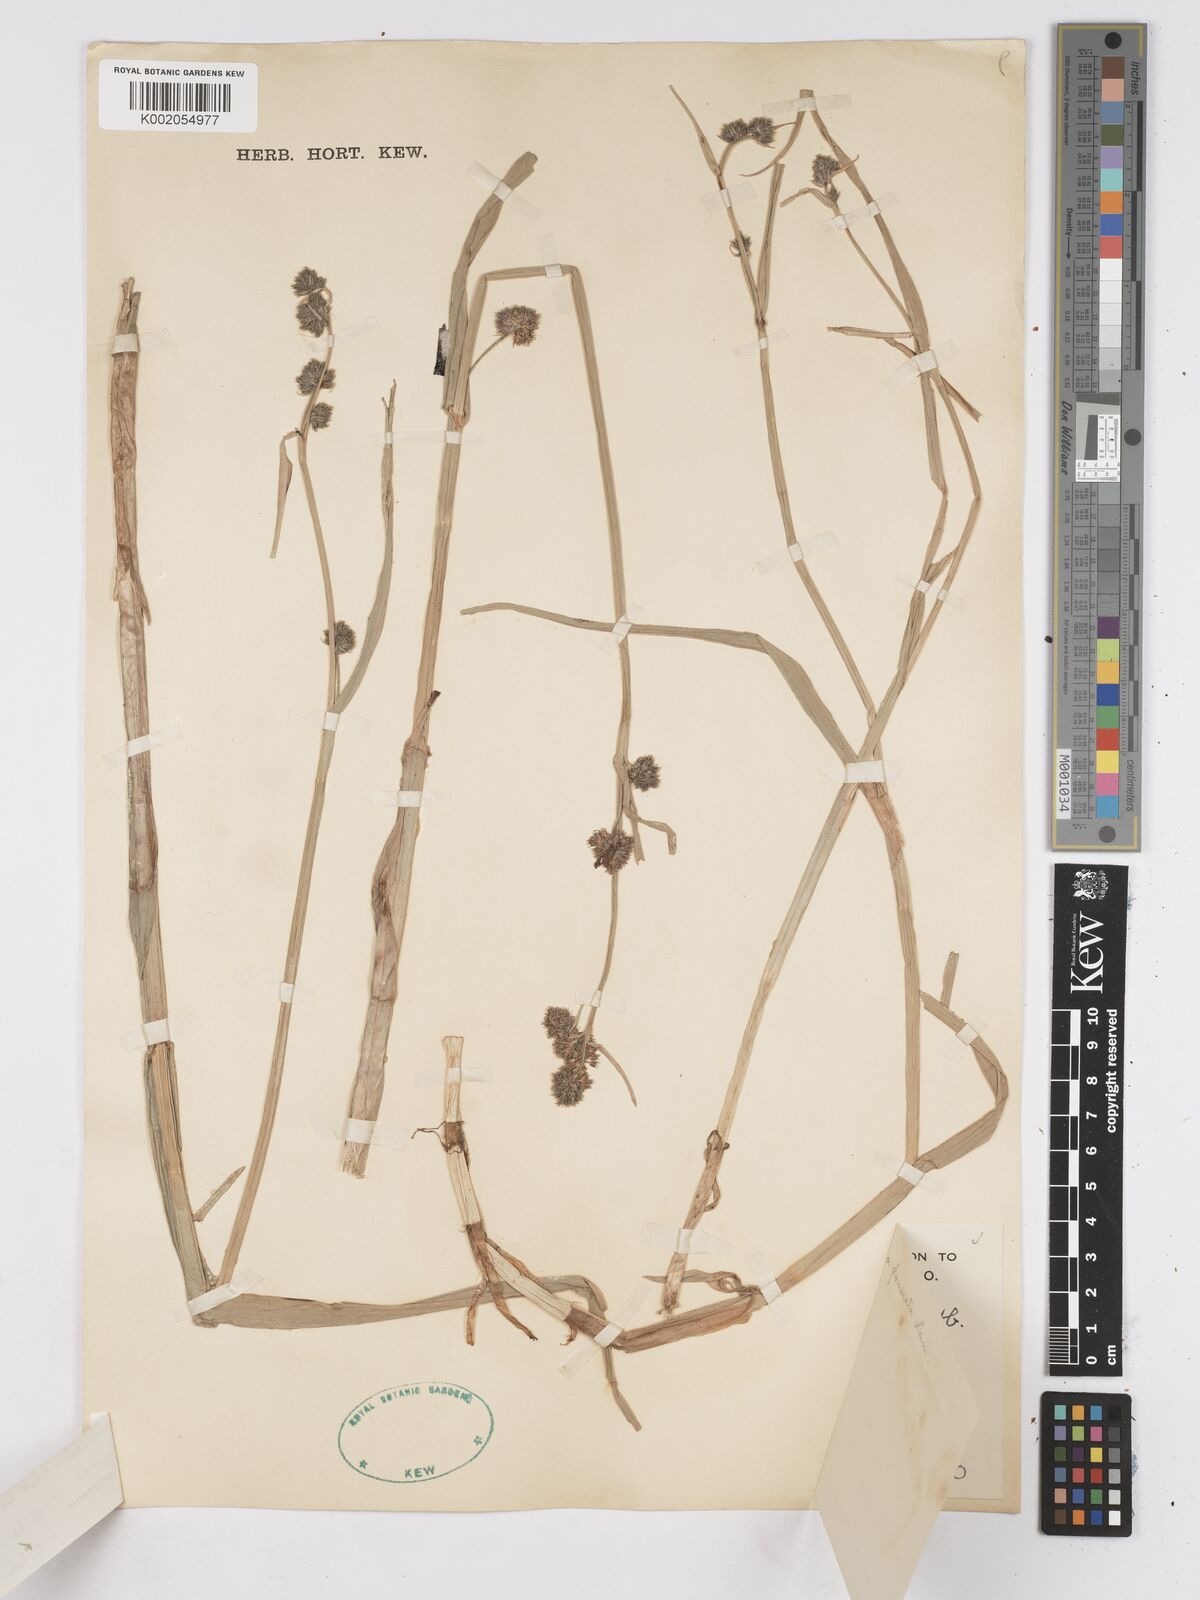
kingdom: Plantae
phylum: Tracheophyta
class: Liliopsida
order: Poales
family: Cyperaceae
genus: Fuirena
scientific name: Fuirena umbellata
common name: Yefen
